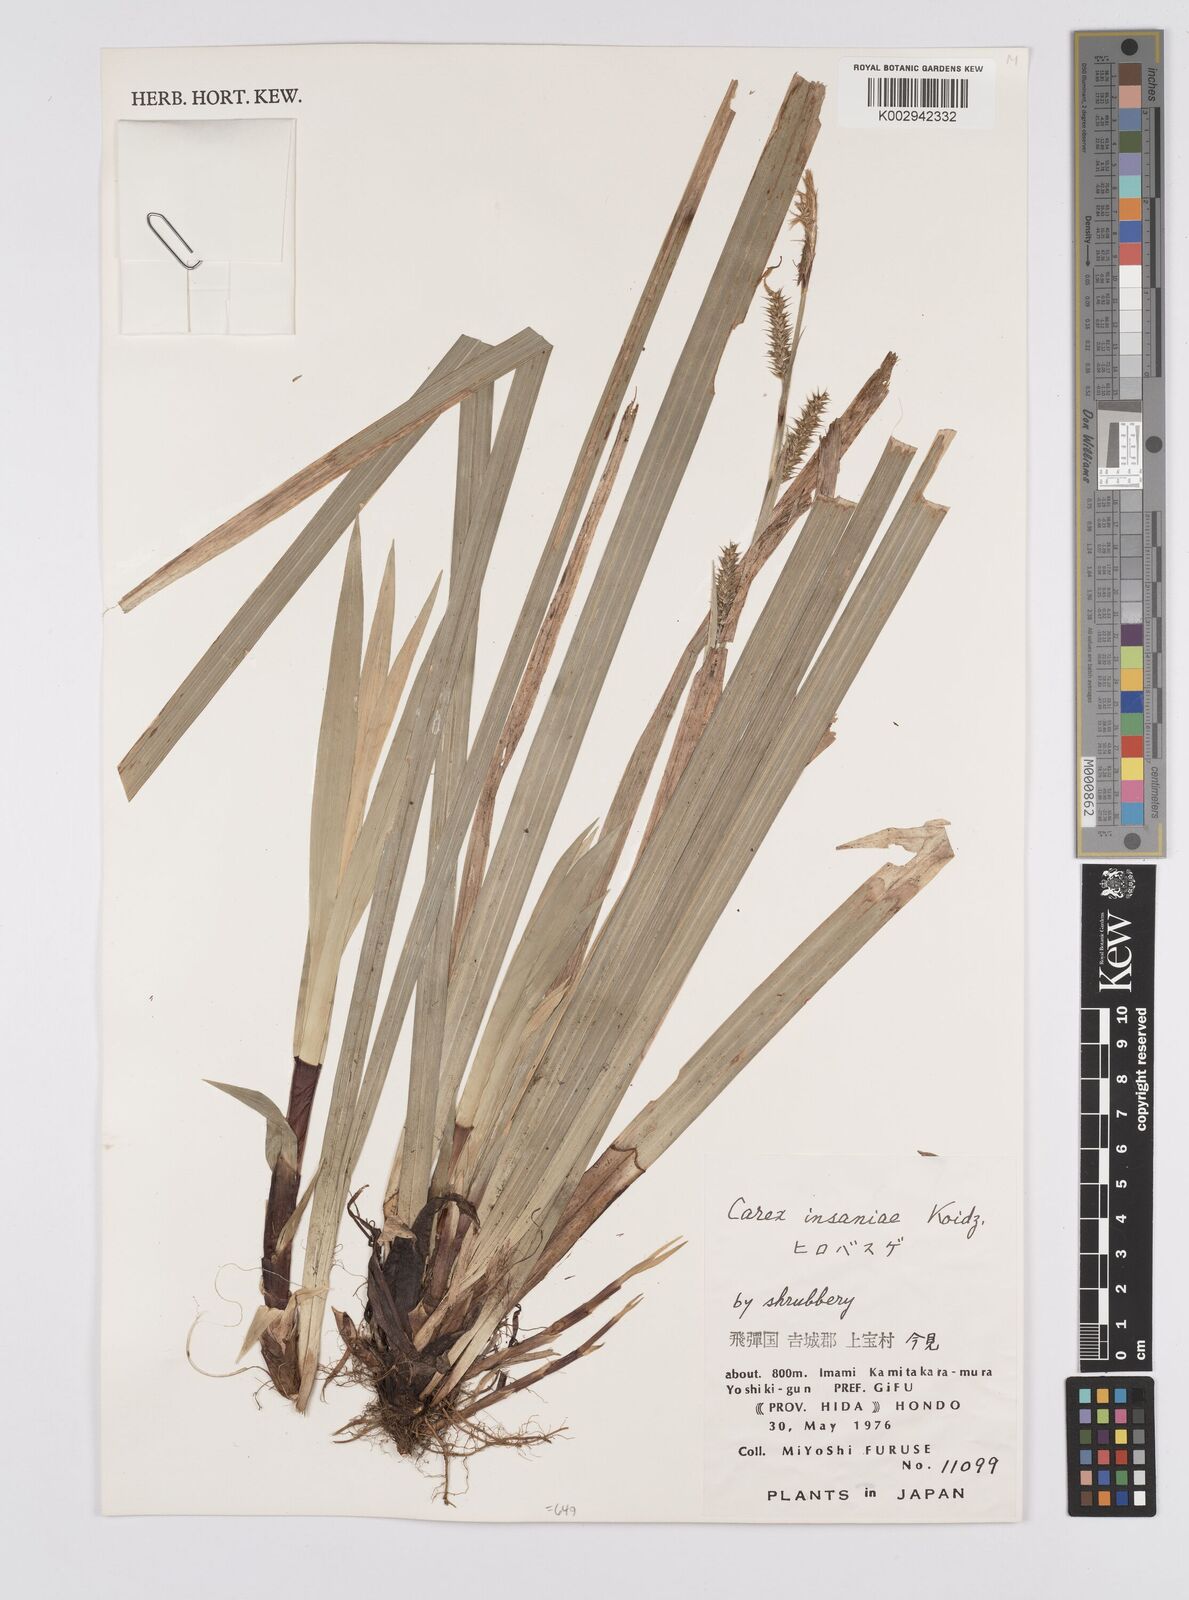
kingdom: Plantae
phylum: Tracheophyta
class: Liliopsida
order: Poales
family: Cyperaceae
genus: Carex
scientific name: Carex insaniae
